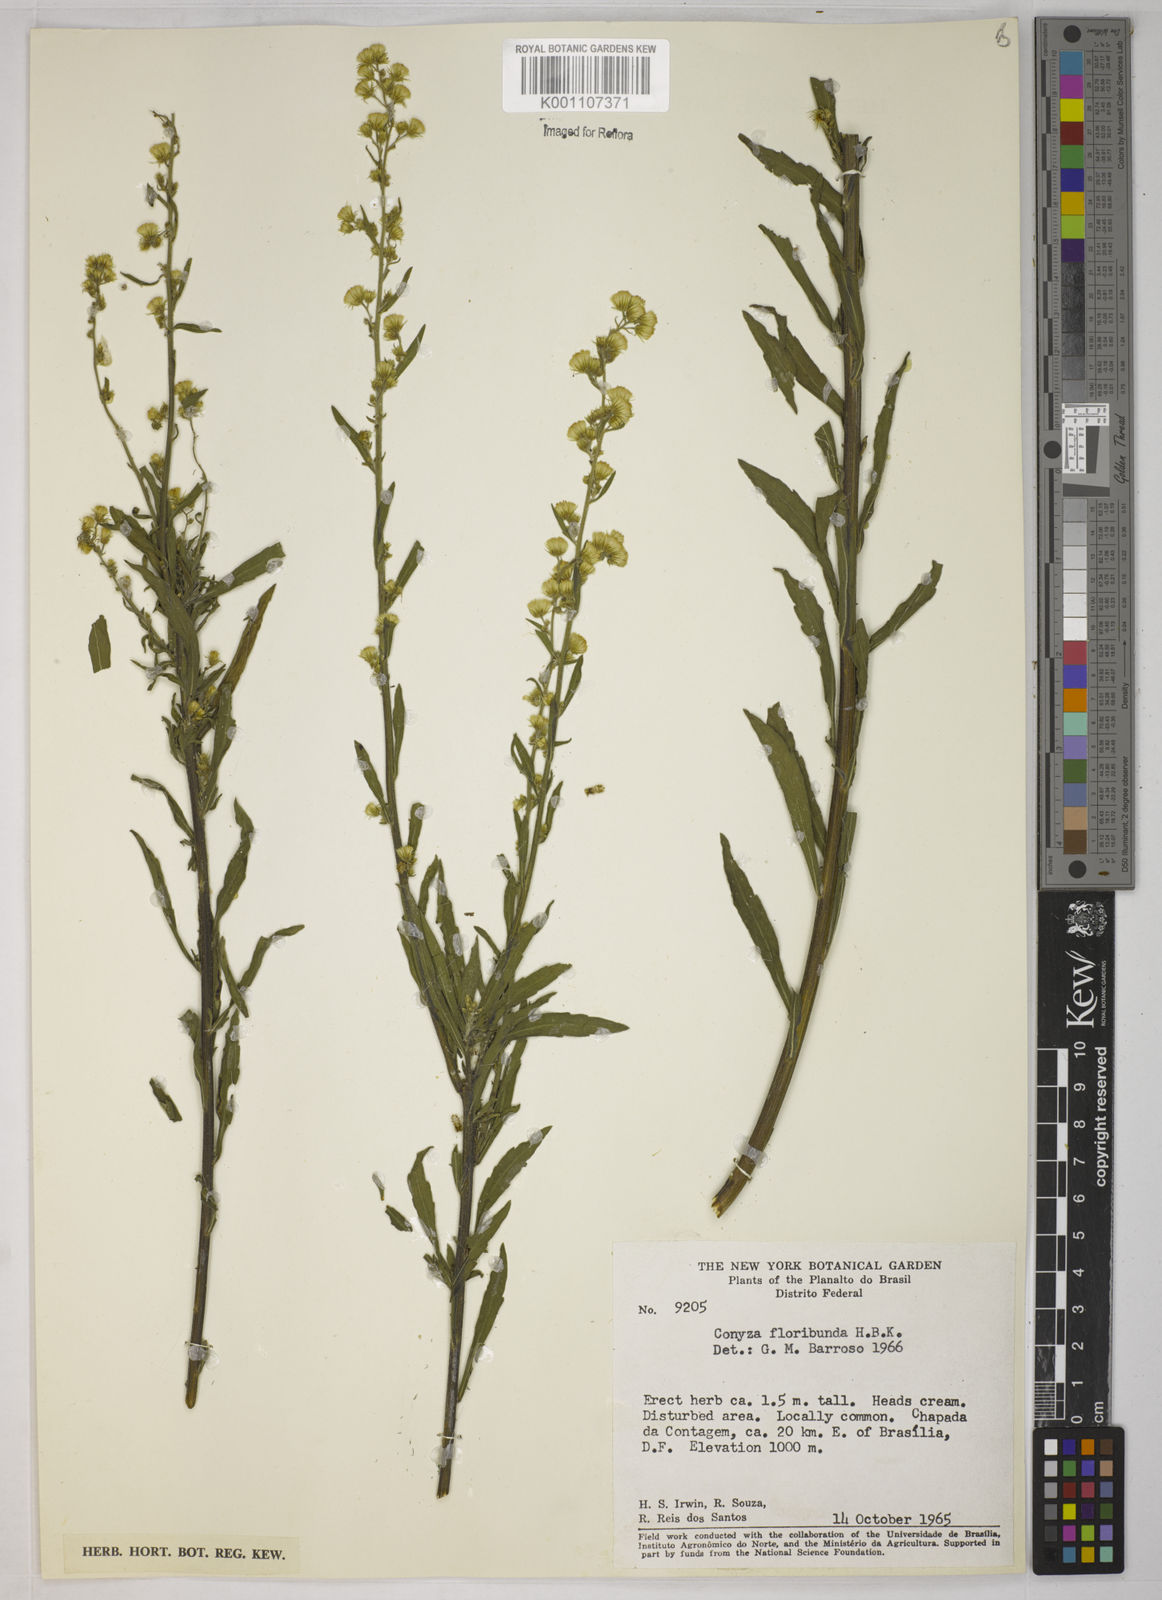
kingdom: Plantae
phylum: Tracheophyta
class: Magnoliopsida
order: Asterales
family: Asteraceae
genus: Erigeron
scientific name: Erigeron sumatrensis
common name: Daisy
